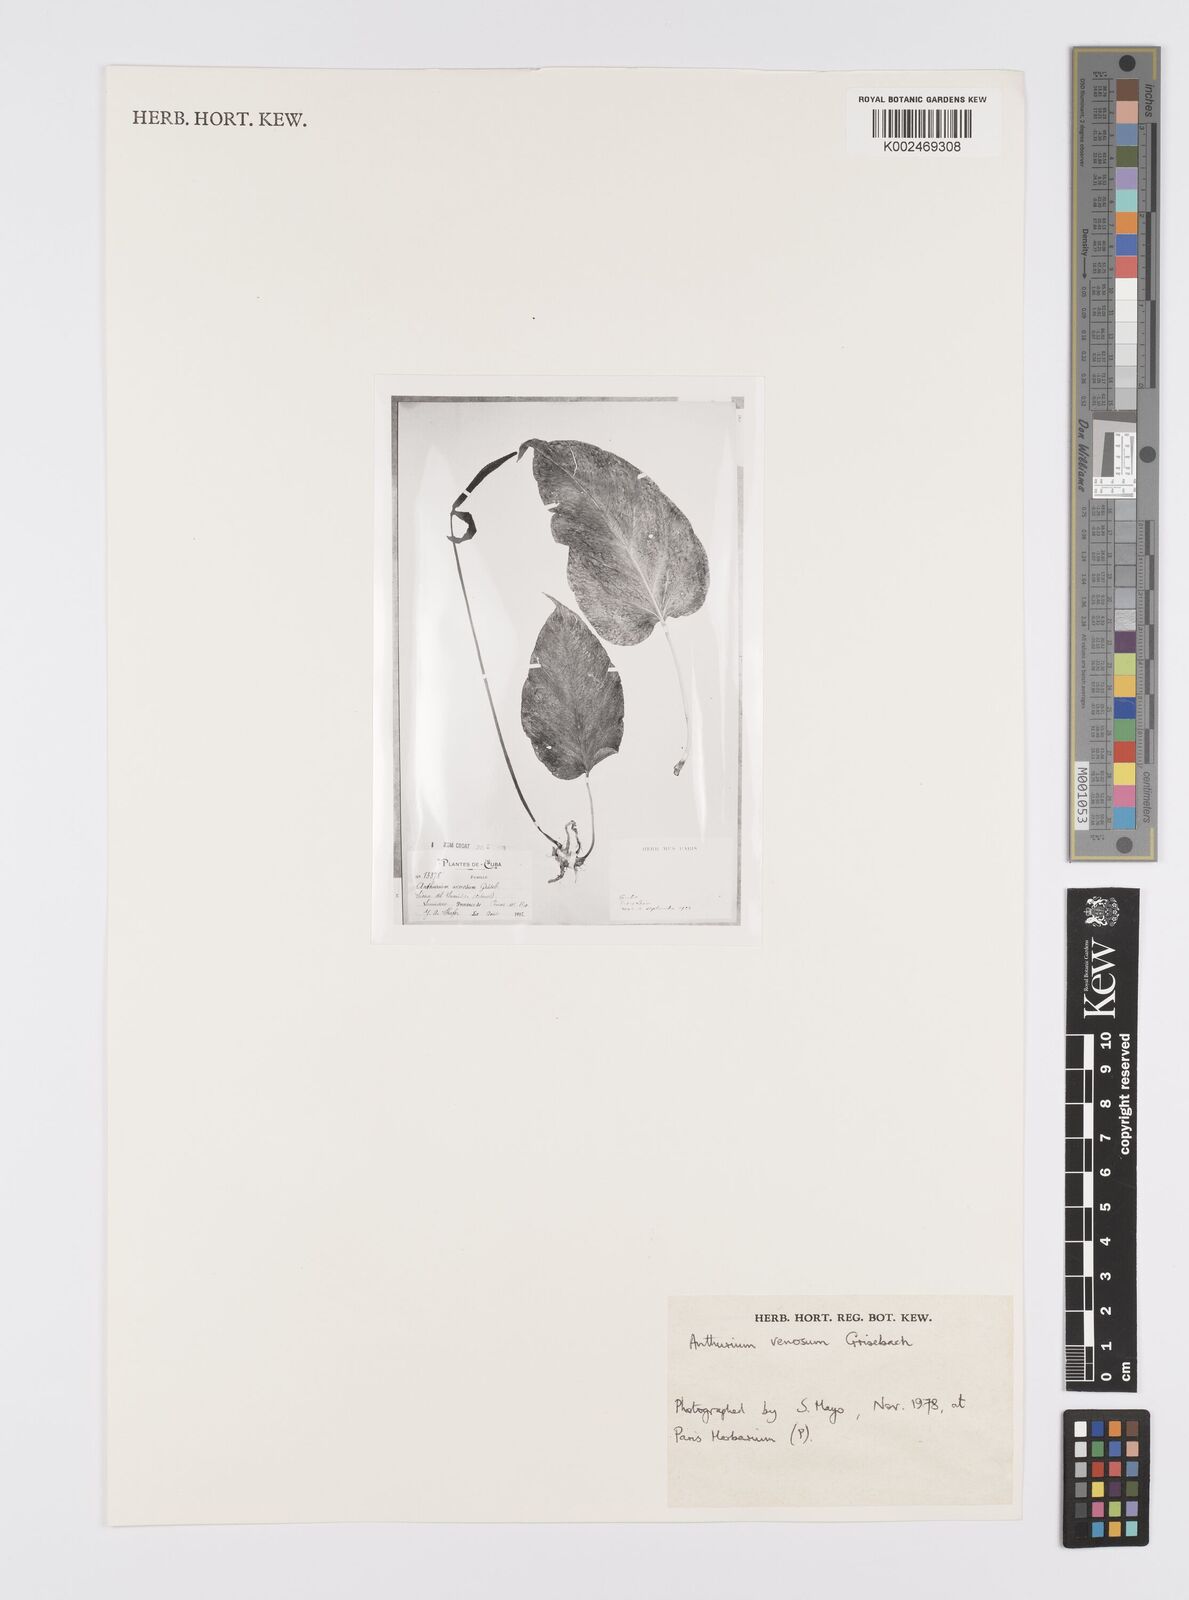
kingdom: Plantae
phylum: Tracheophyta
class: Liliopsida
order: Alismatales
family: Araceae
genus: Anthurium
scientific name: Anthurium venosum
